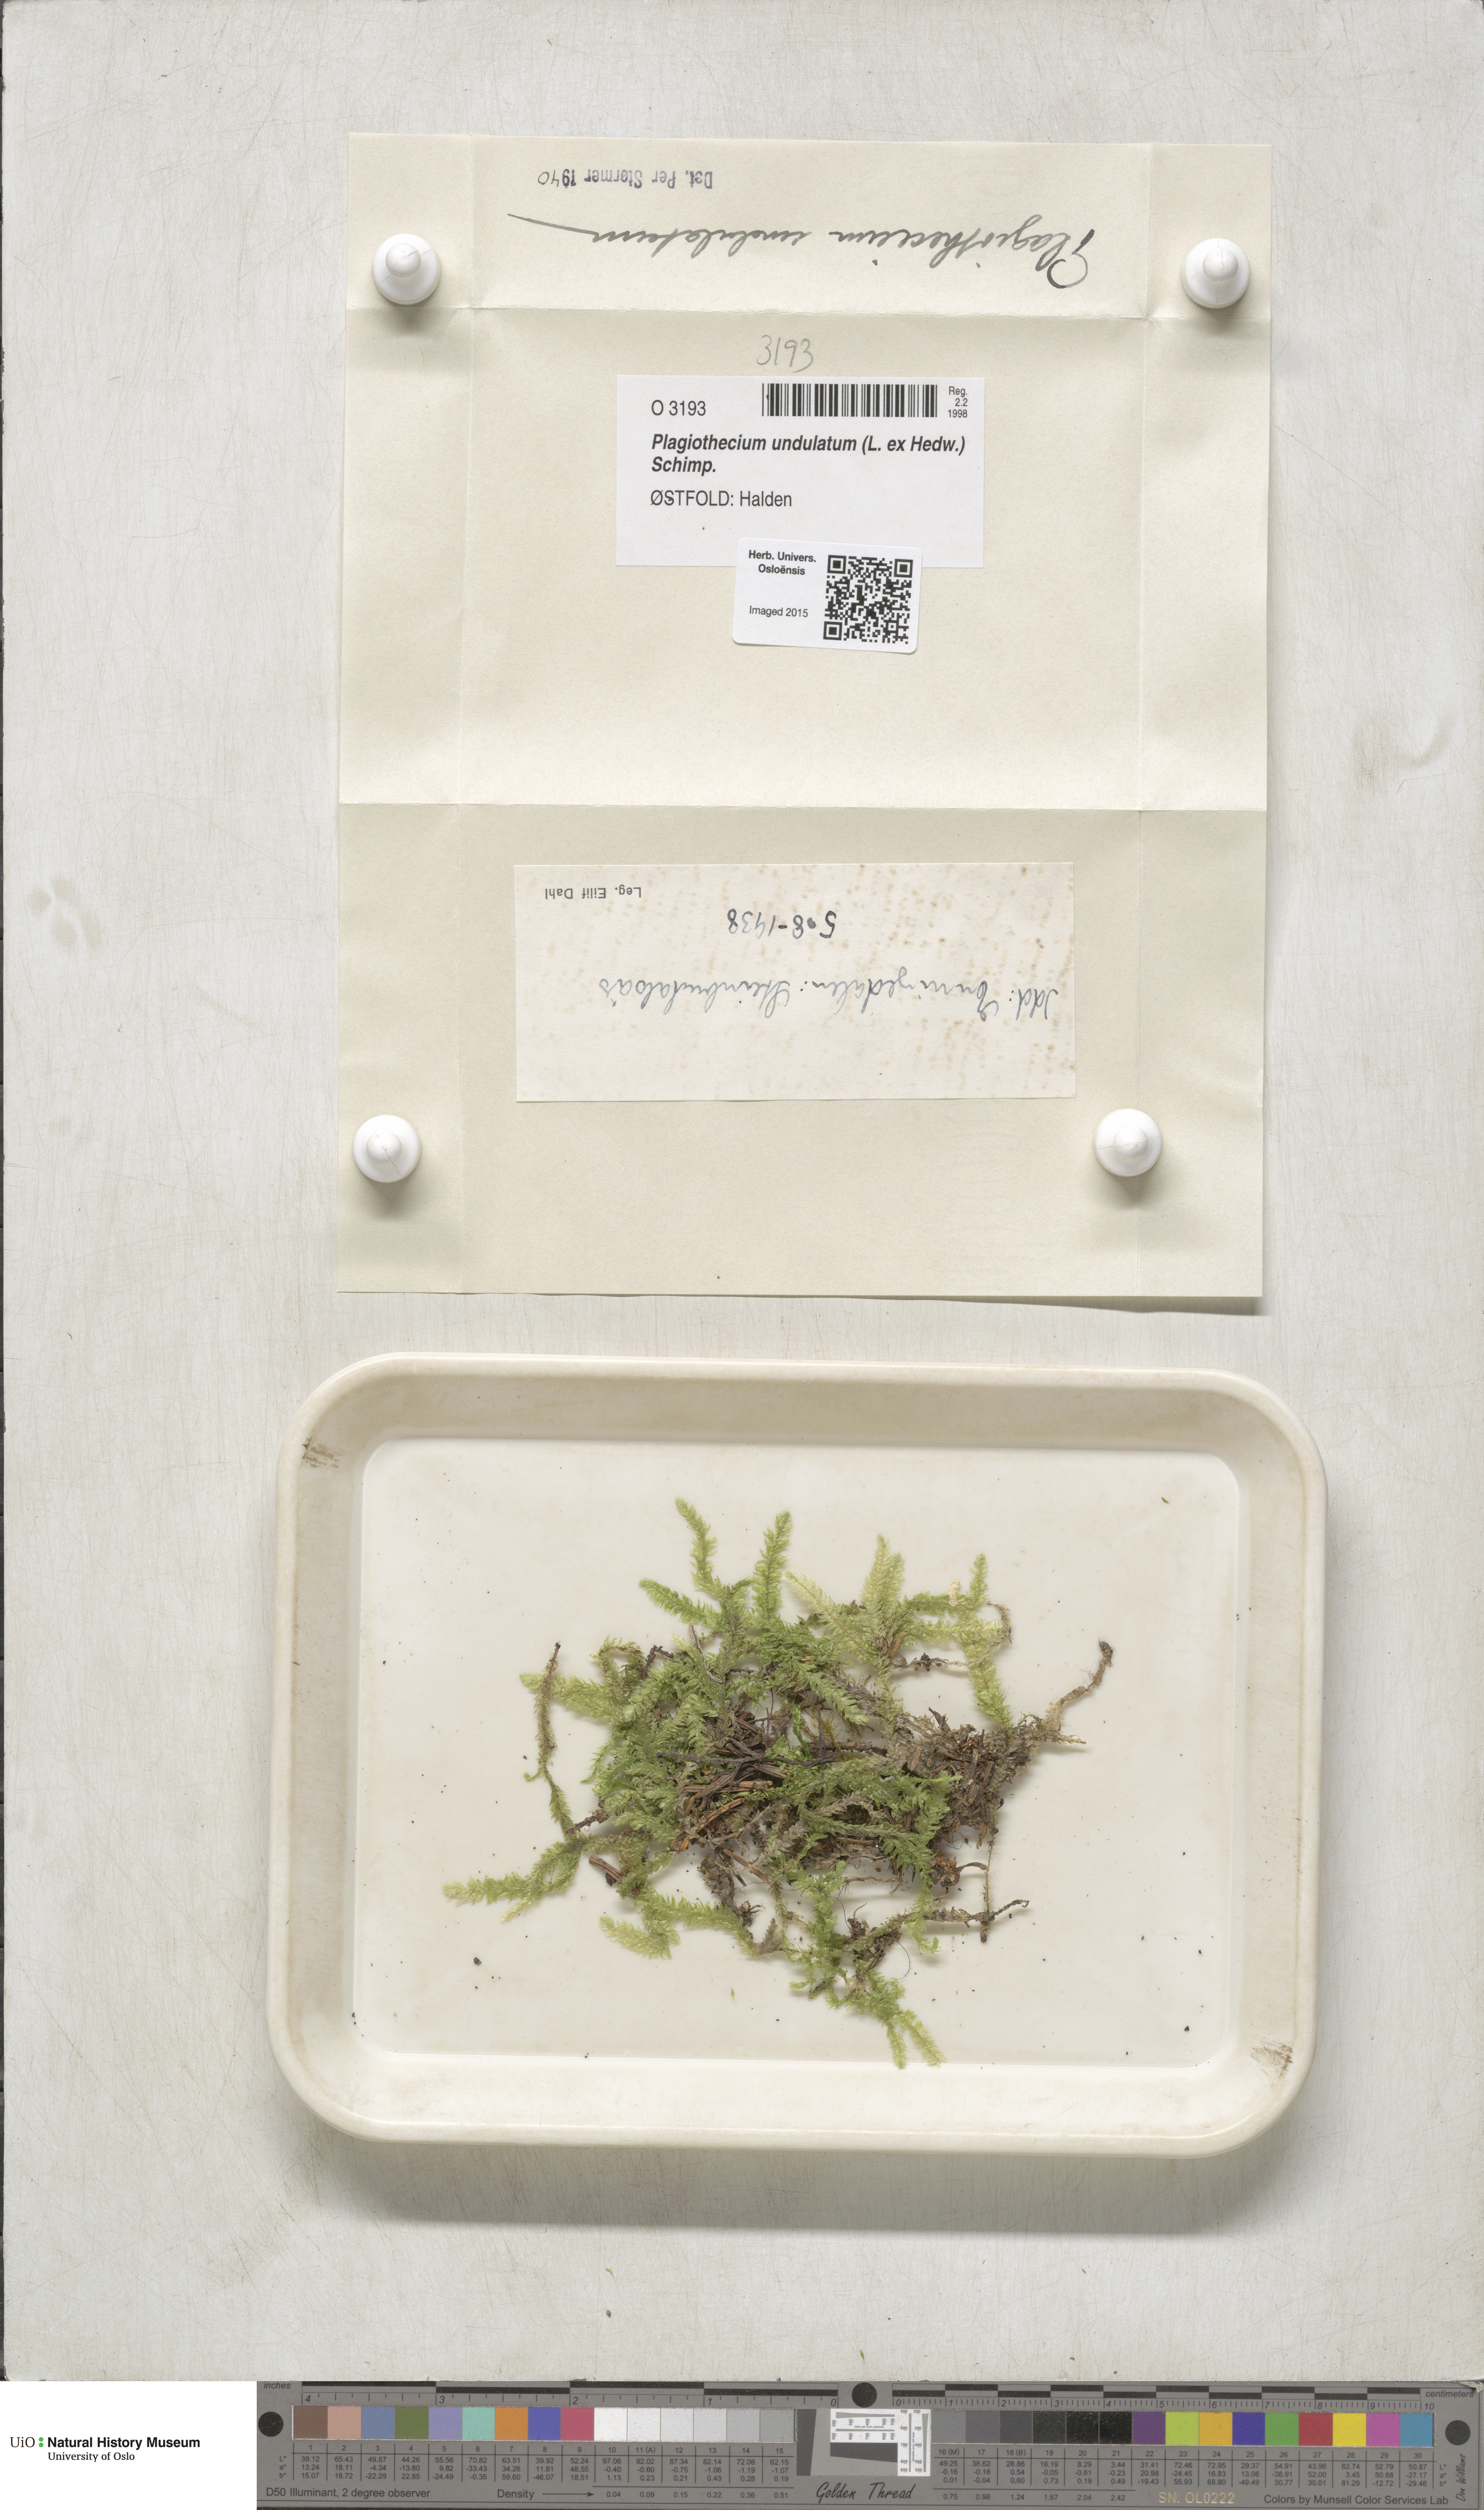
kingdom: Plantae
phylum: Bryophyta
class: Bryopsida
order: Hypnales
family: Plagiotheciaceae
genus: Plagiothecium
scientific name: Plagiothecium undulatum
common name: Waved silk-moss
